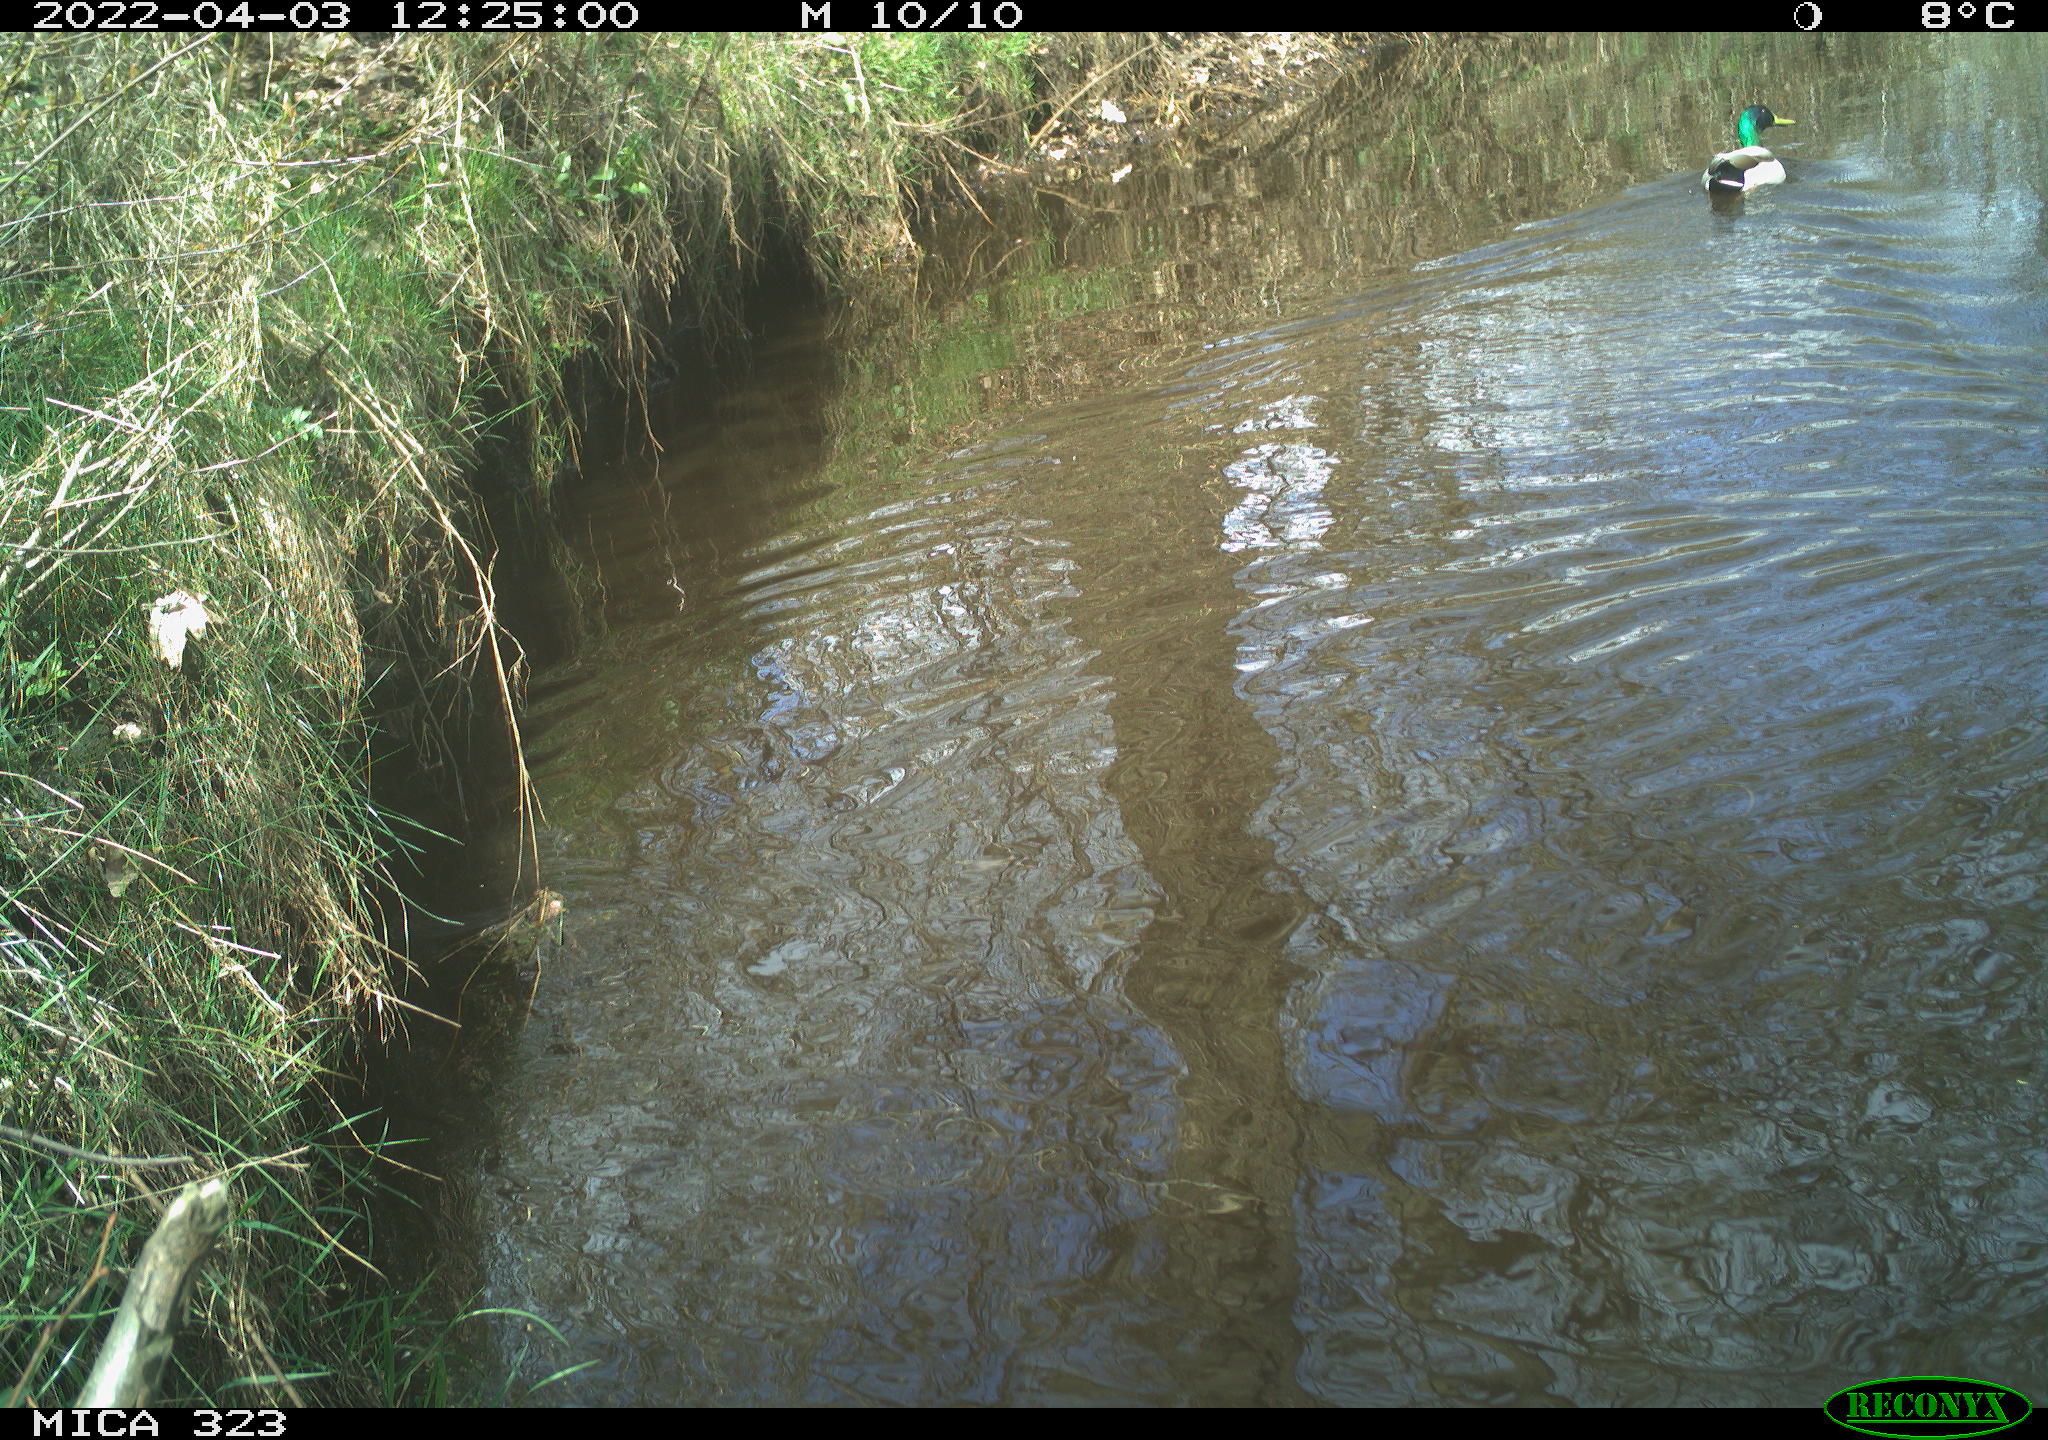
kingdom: Animalia
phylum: Chordata
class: Aves
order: Anseriformes
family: Anatidae
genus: Anas
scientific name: Anas platyrhynchos
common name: Mallard
